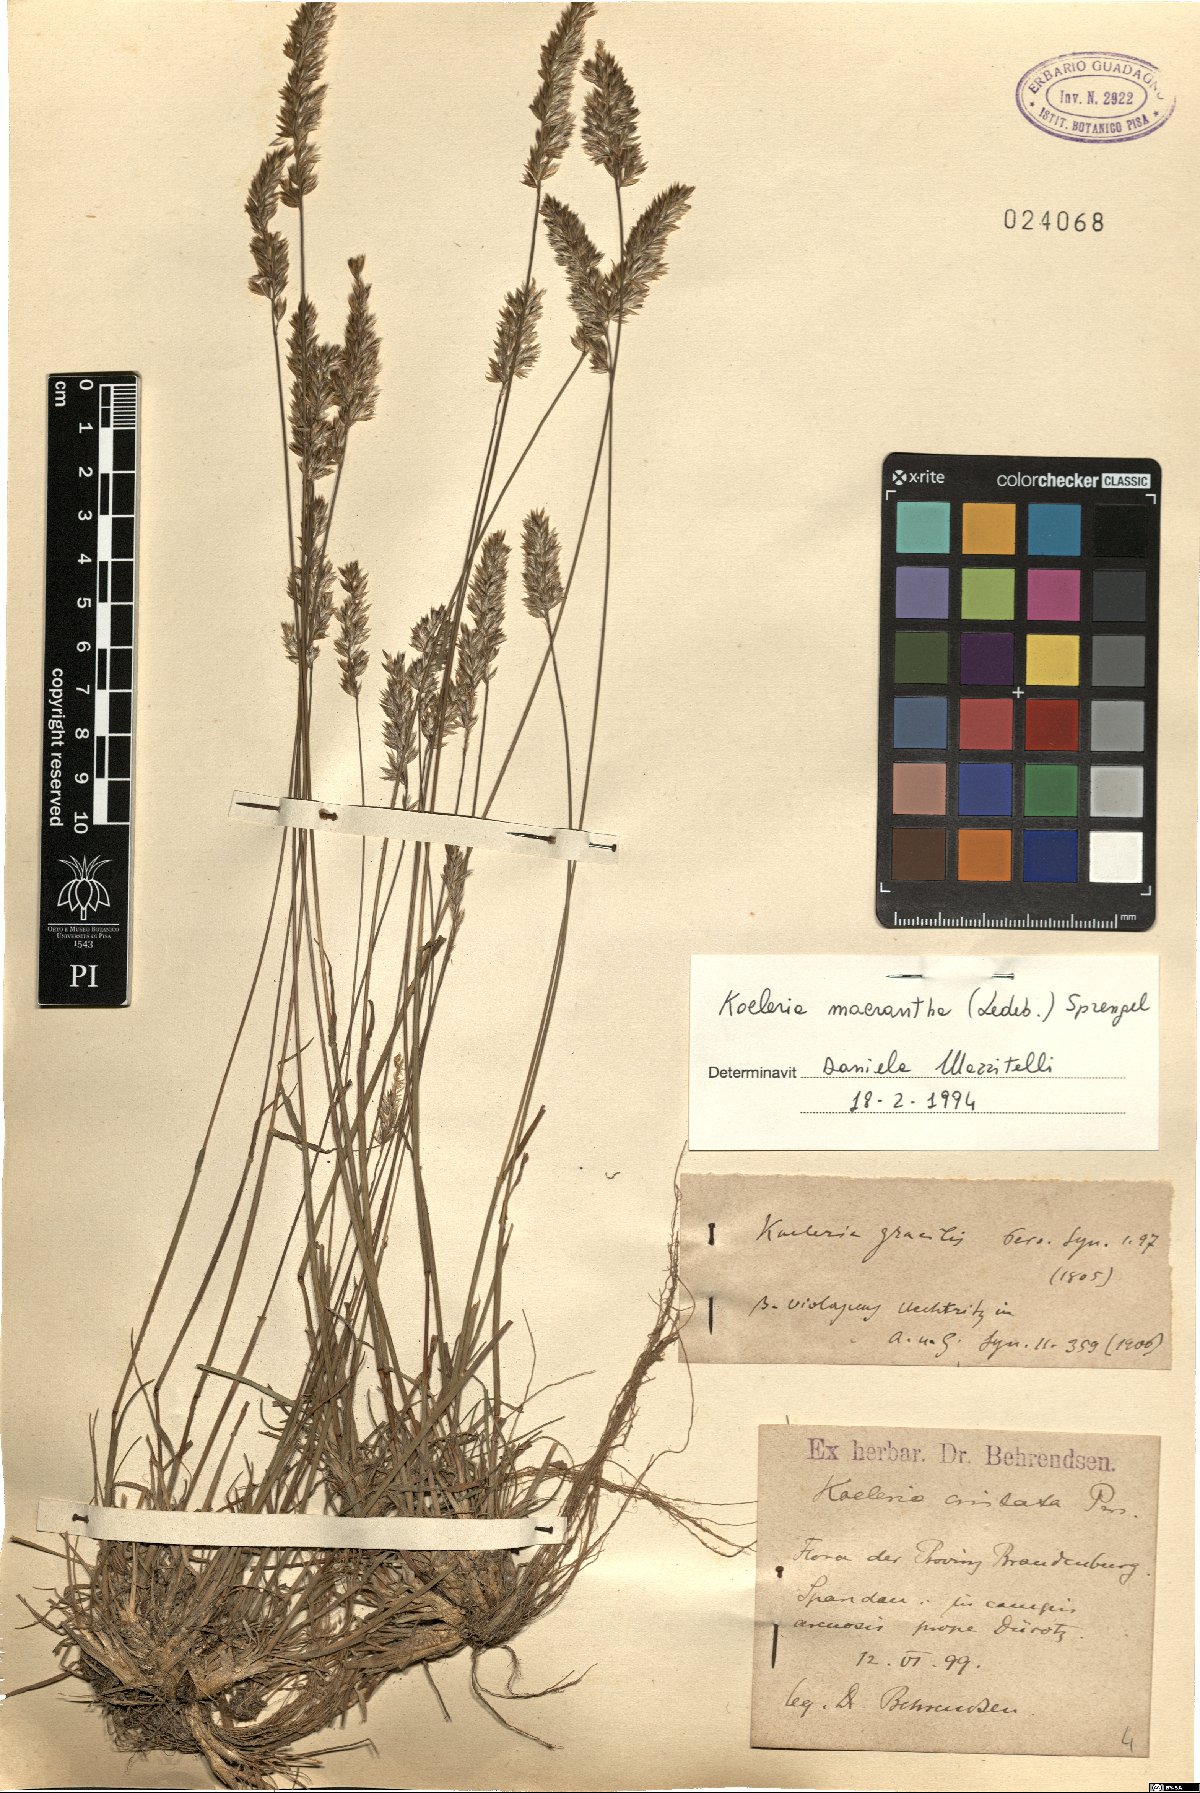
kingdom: Plantae
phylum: Tracheophyta
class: Liliopsida
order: Poales
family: Poaceae
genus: Koeleria
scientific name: Koeleria macrantha
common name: Crested hair-grass
